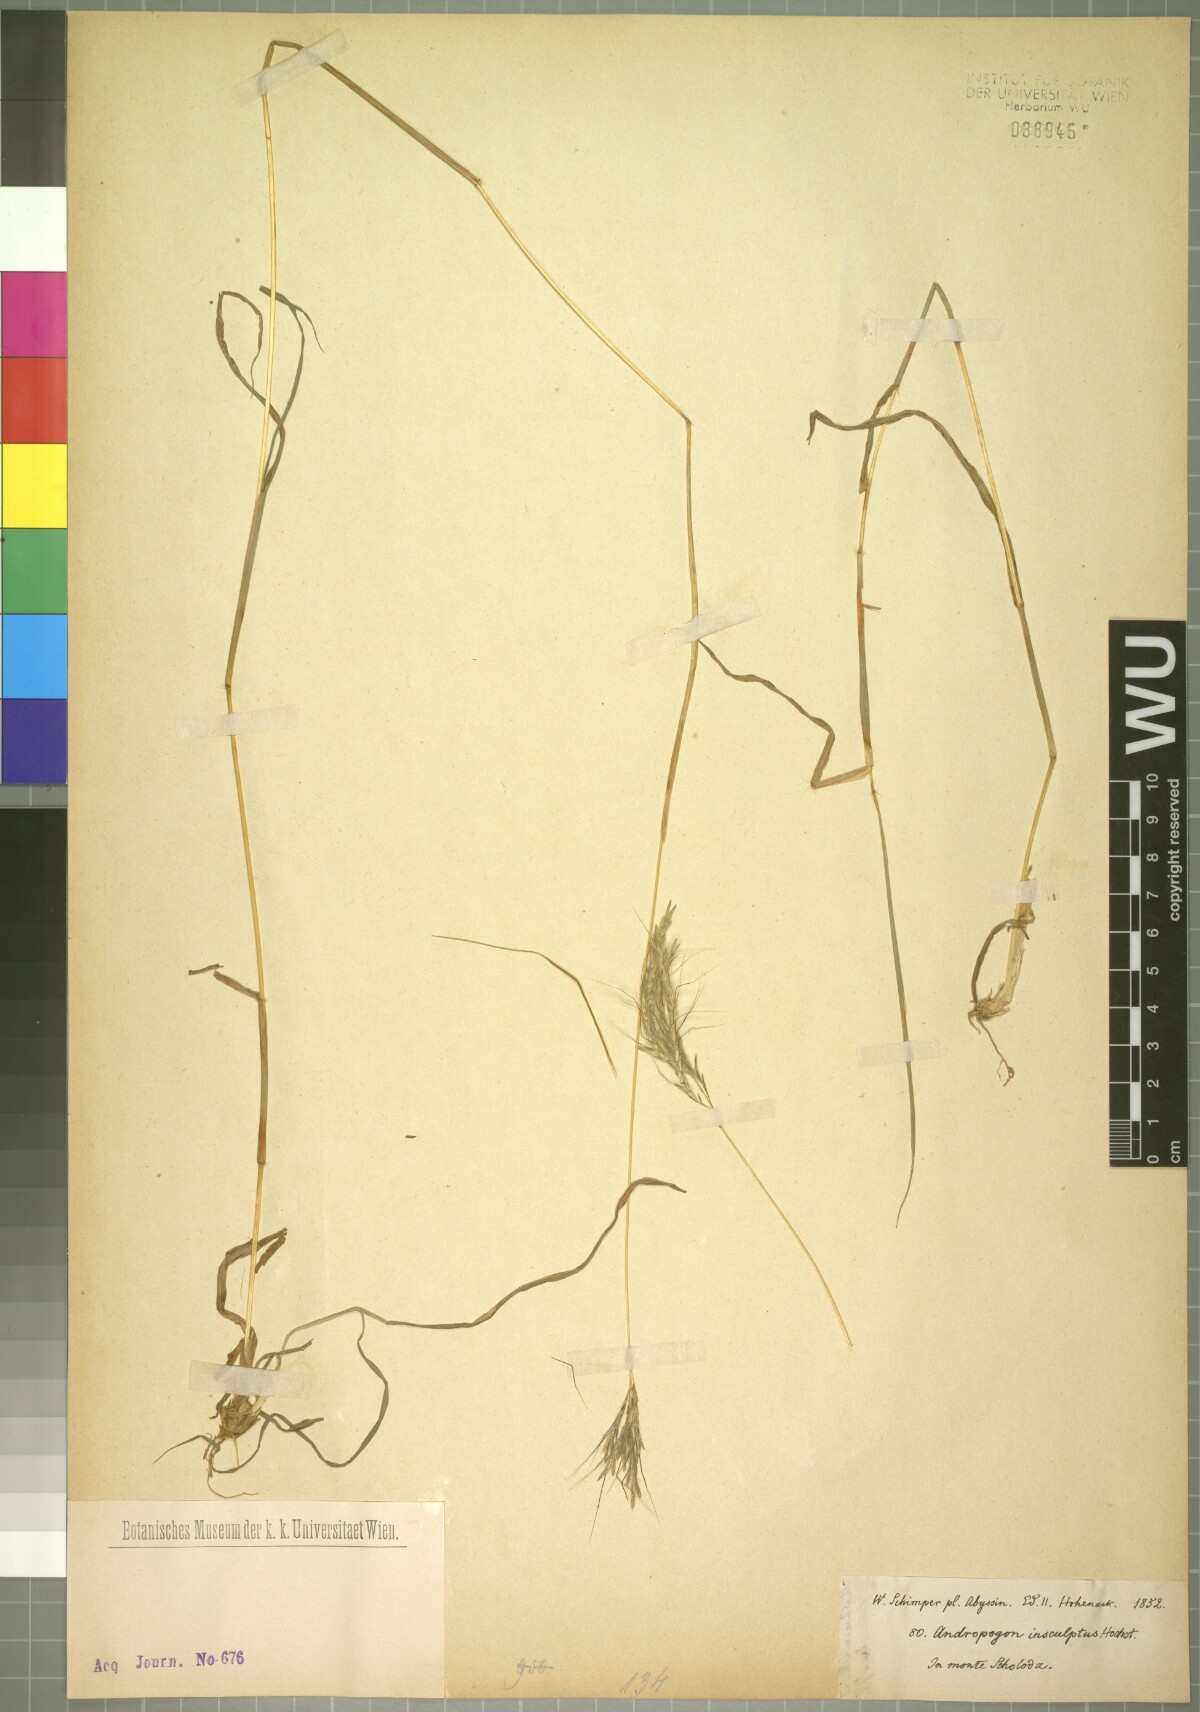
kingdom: Plantae
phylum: Tracheophyta
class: Liliopsida
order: Poales
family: Poaceae
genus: Bothriochloa
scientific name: Bothriochloa insculpta
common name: Creeping-bluegrass
